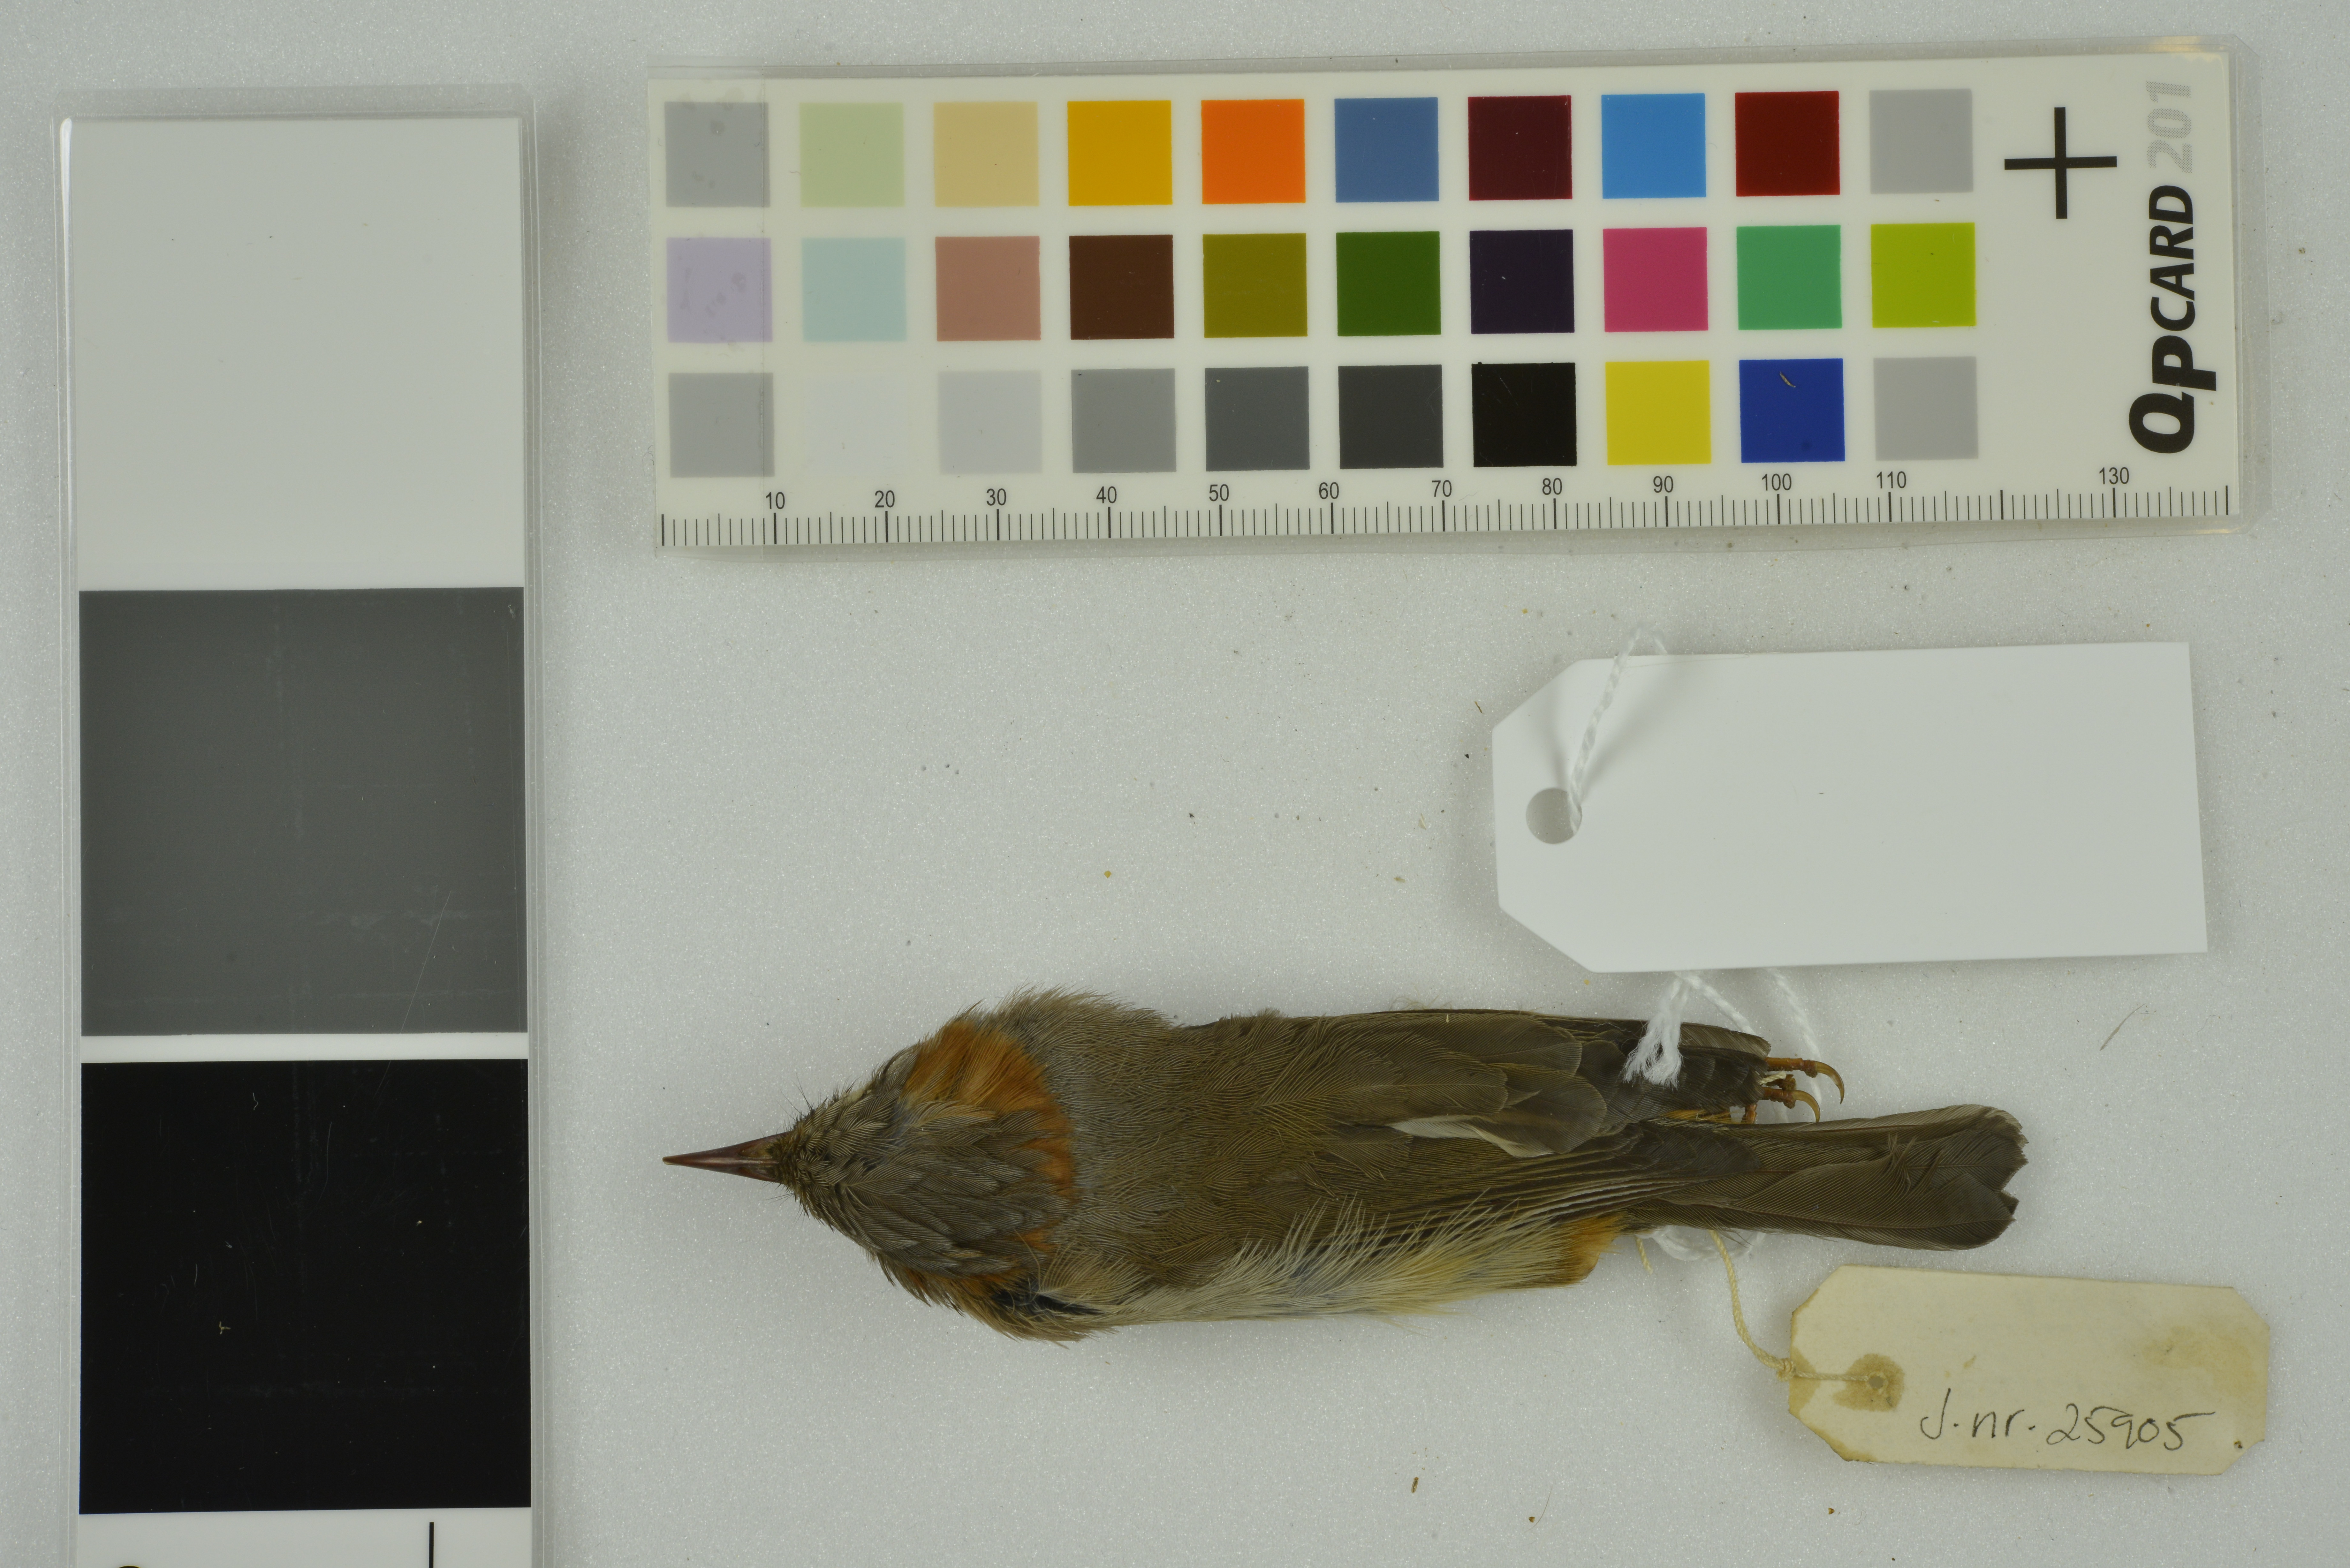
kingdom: Animalia
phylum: Chordata
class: Aves
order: Passeriformes
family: Zosteropidae
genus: Yuhina
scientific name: Yuhina occipitalis
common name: Rufous-vented yuhina
